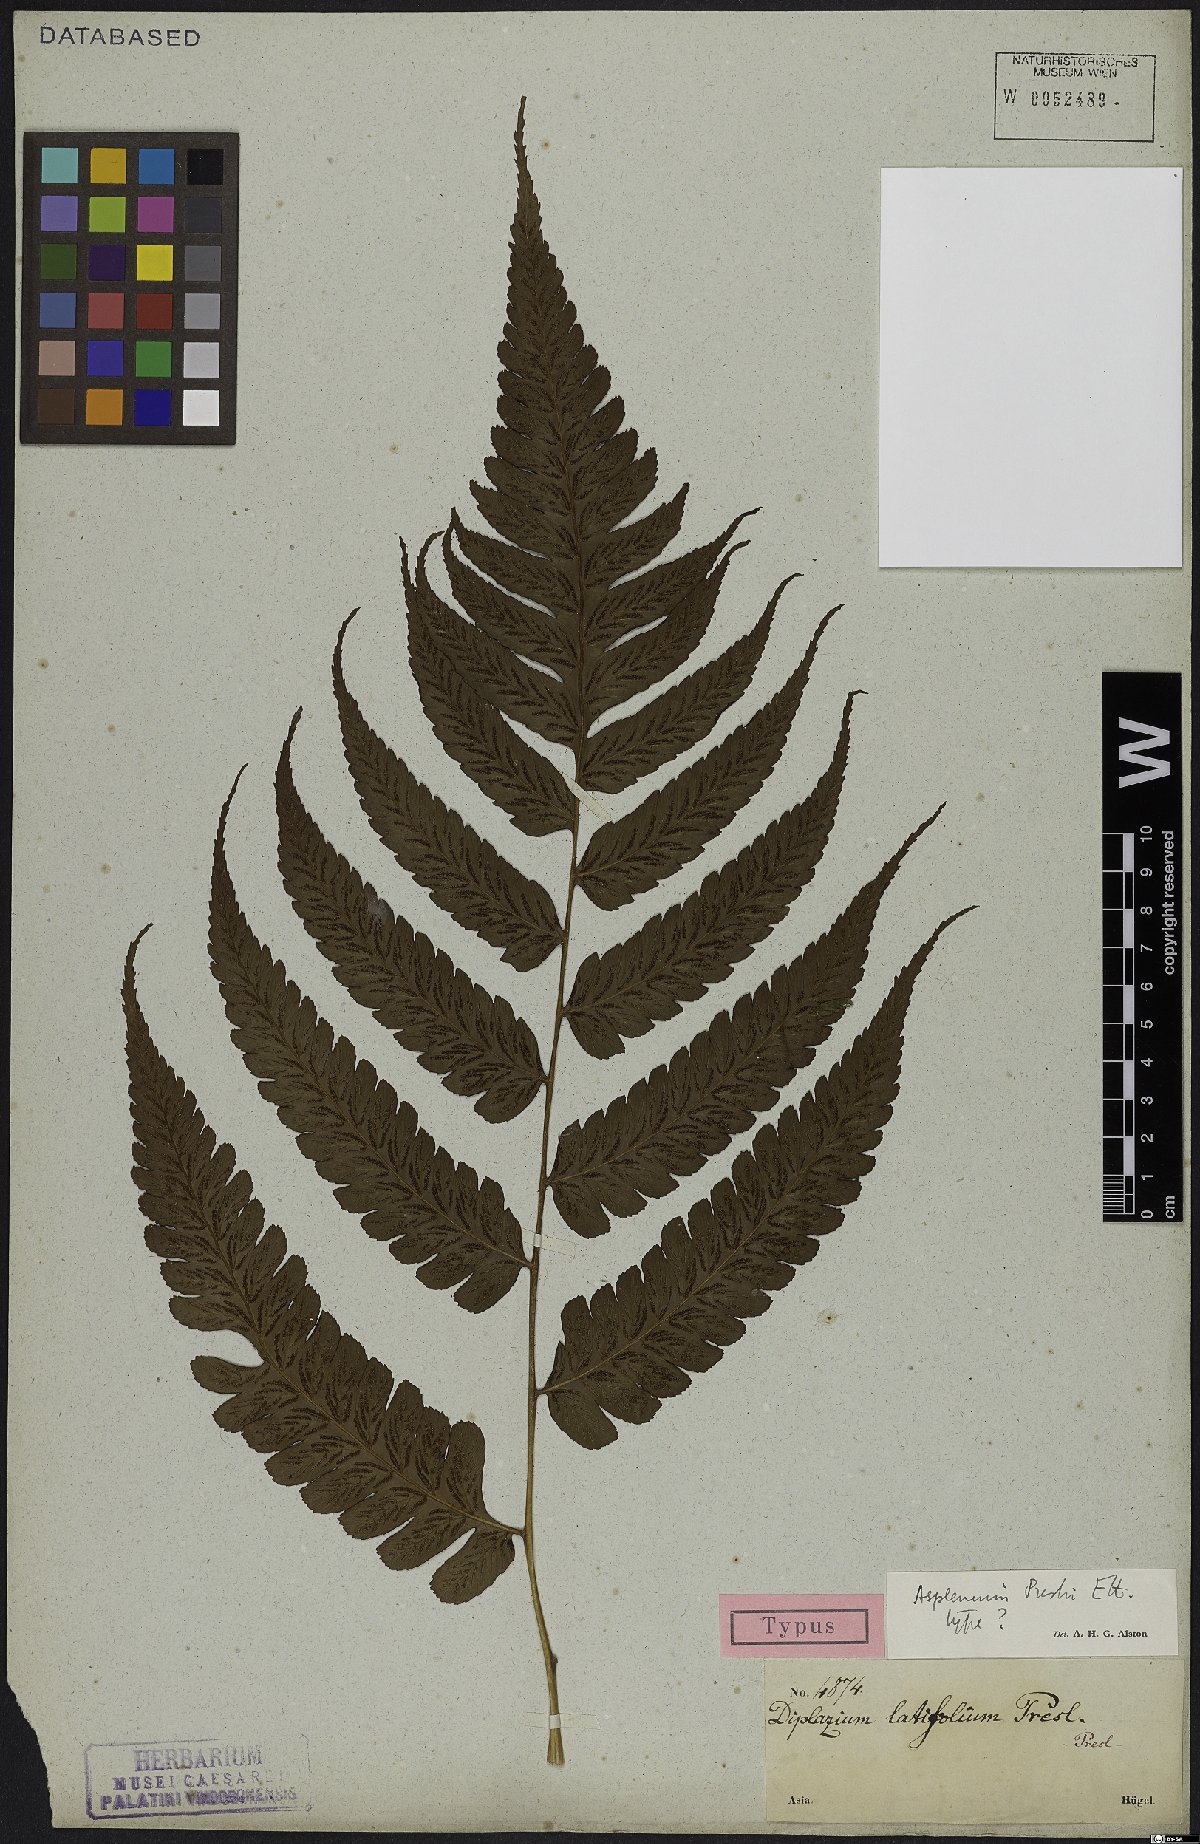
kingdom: Plantae
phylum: Tracheophyta
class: Polypodiopsida
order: Polypodiales
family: Aspleniaceae
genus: Asplenium
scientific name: Asplenium preslii
